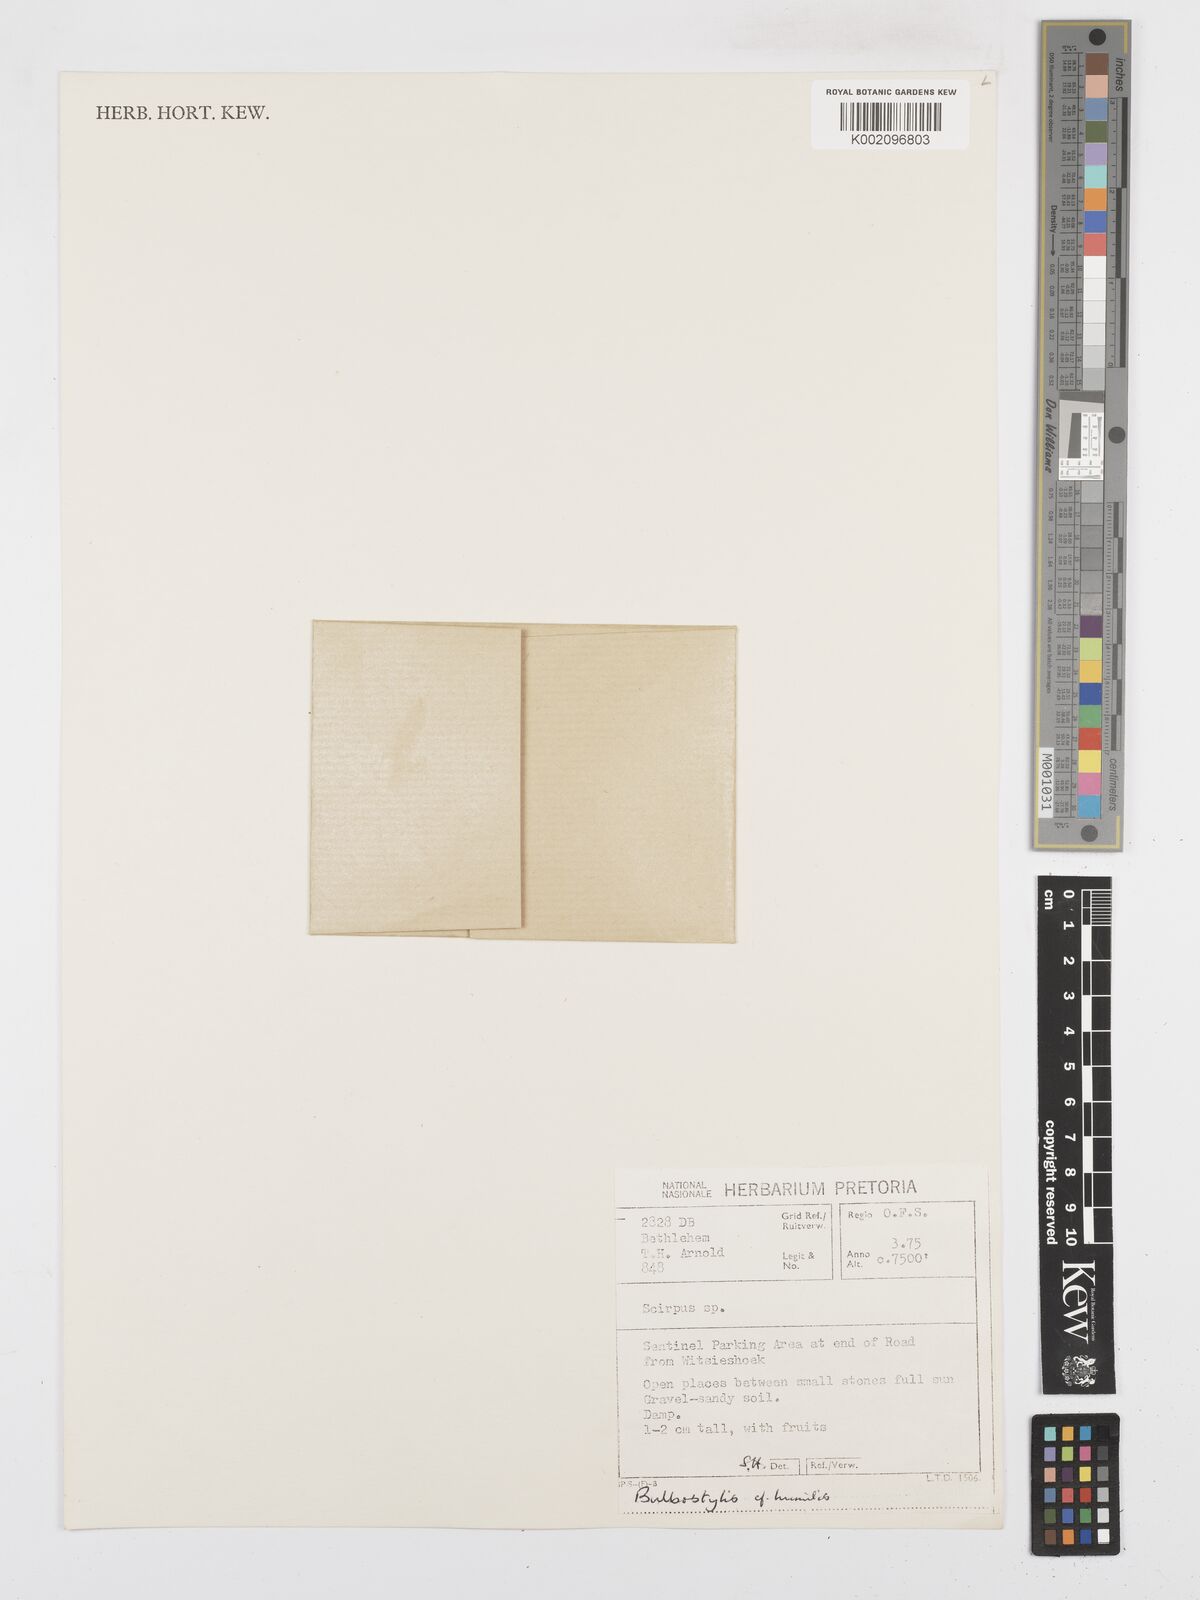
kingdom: Plantae
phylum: Tracheophyta
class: Liliopsida
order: Poales
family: Cyperaceae
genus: Bulbostylis
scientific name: Bulbostylis
